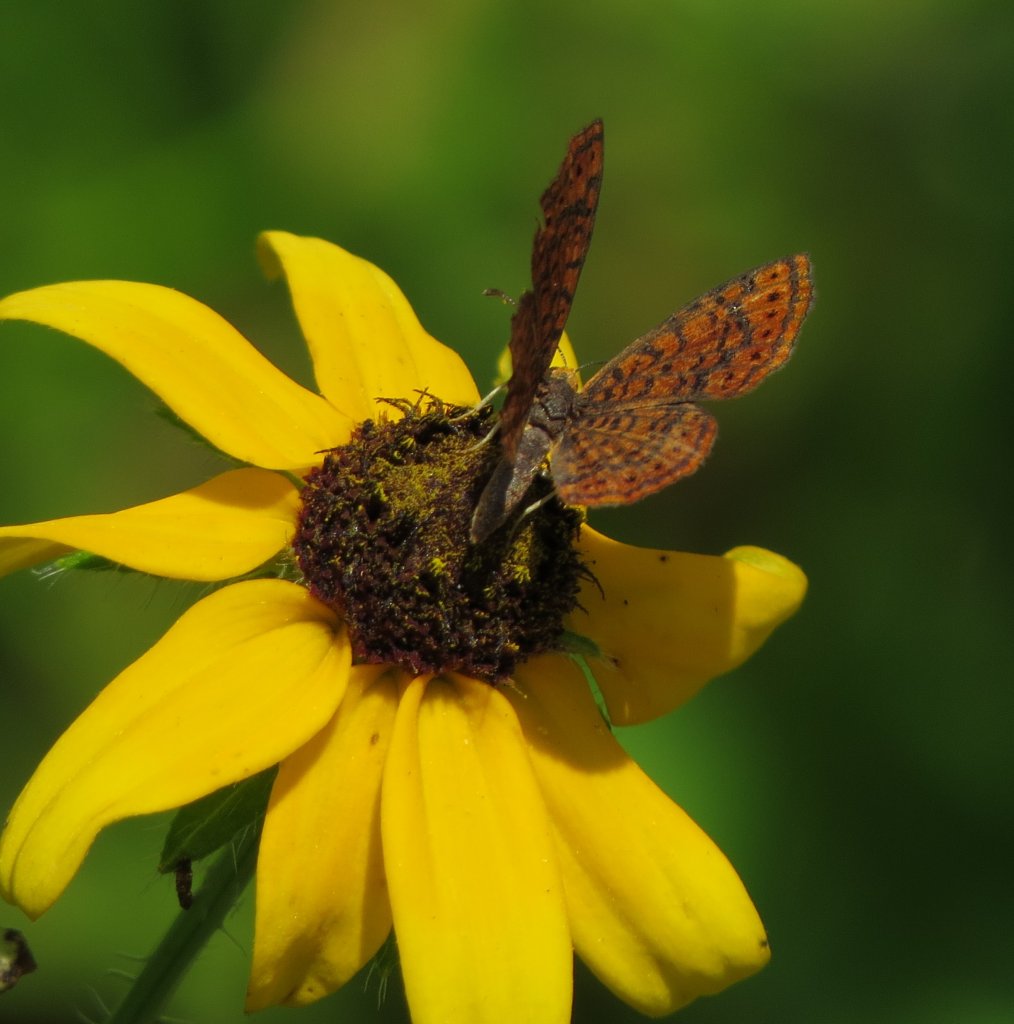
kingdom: Animalia
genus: Calephelis
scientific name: Calephelis virginiensis
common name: Little Metalmark
